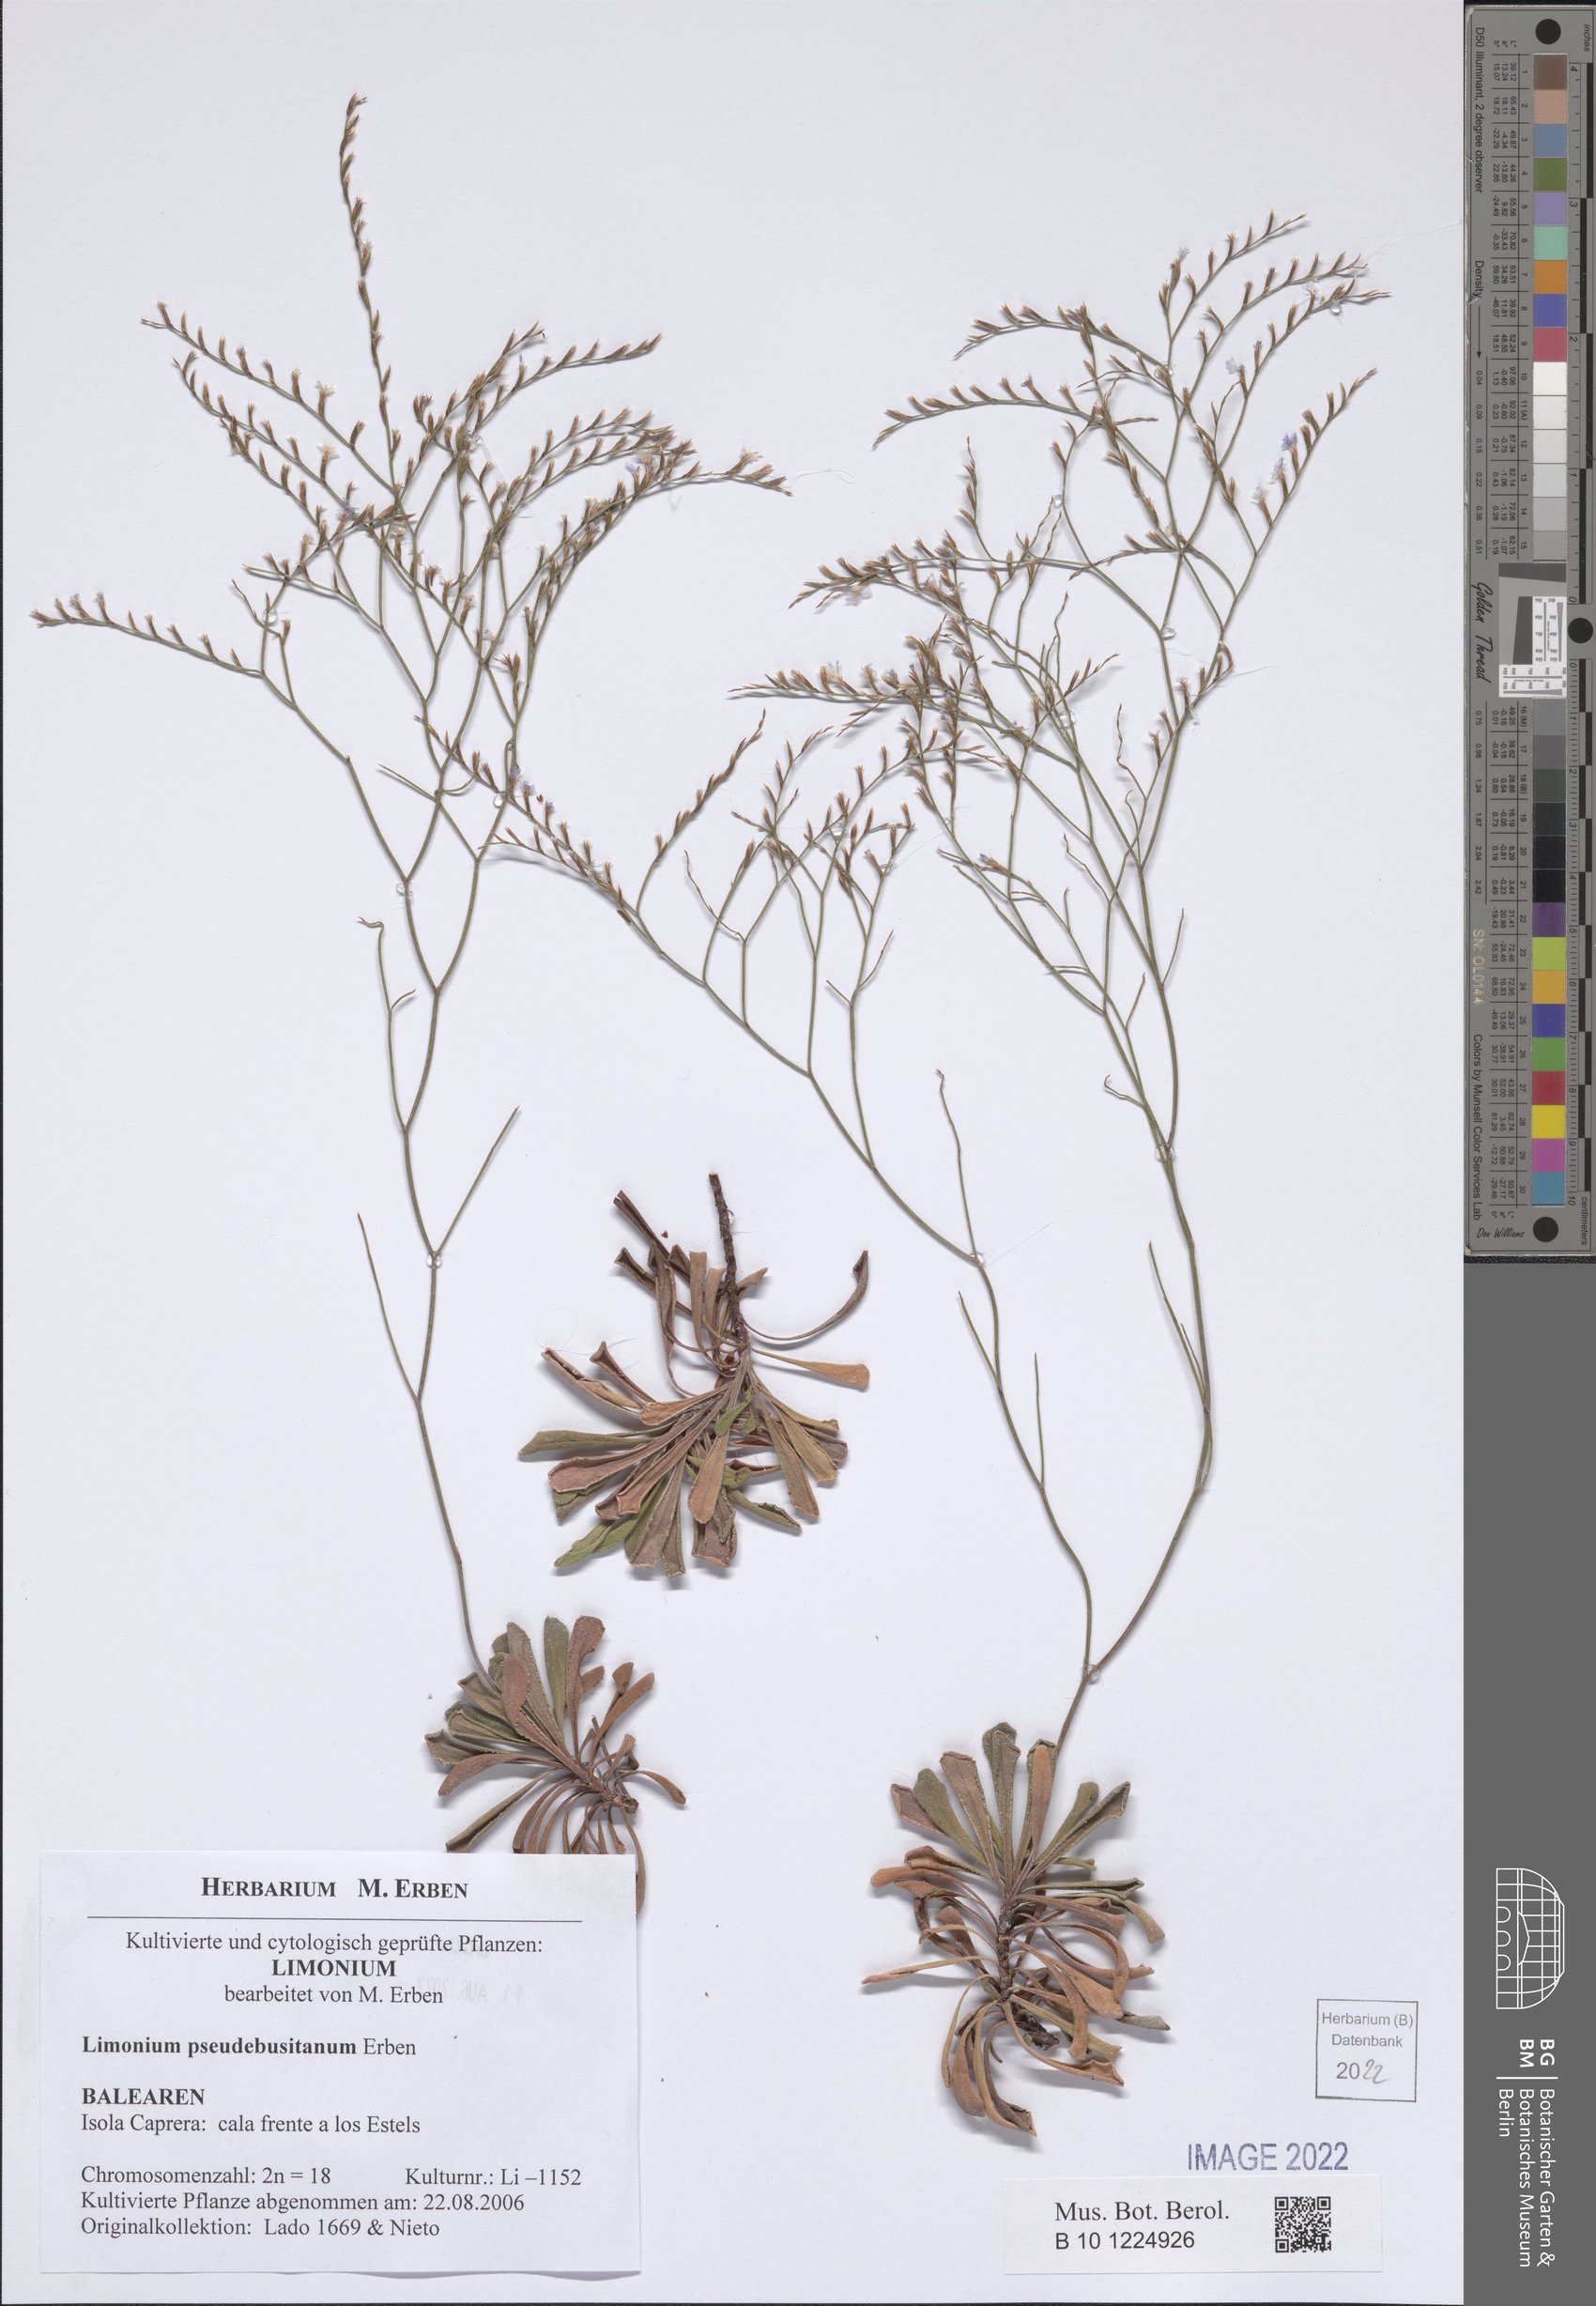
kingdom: Plantae
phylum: Tracheophyta
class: Magnoliopsida
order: Caryophyllales
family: Plumbaginaceae
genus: Limonium
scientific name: Limonium pseudebusitanum
